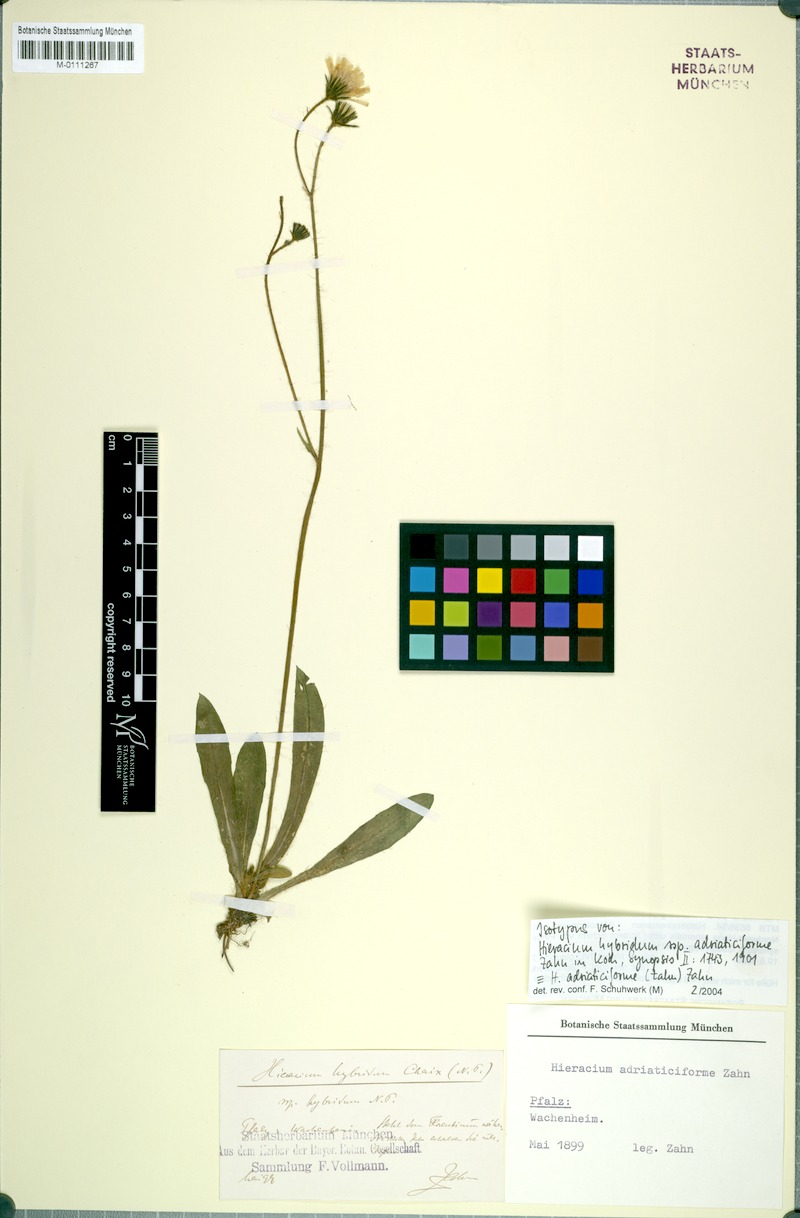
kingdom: Plantae
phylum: Tracheophyta
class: Magnoliopsida
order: Asterales
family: Asteraceae
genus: Hieracium
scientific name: Hieracium hybridum
